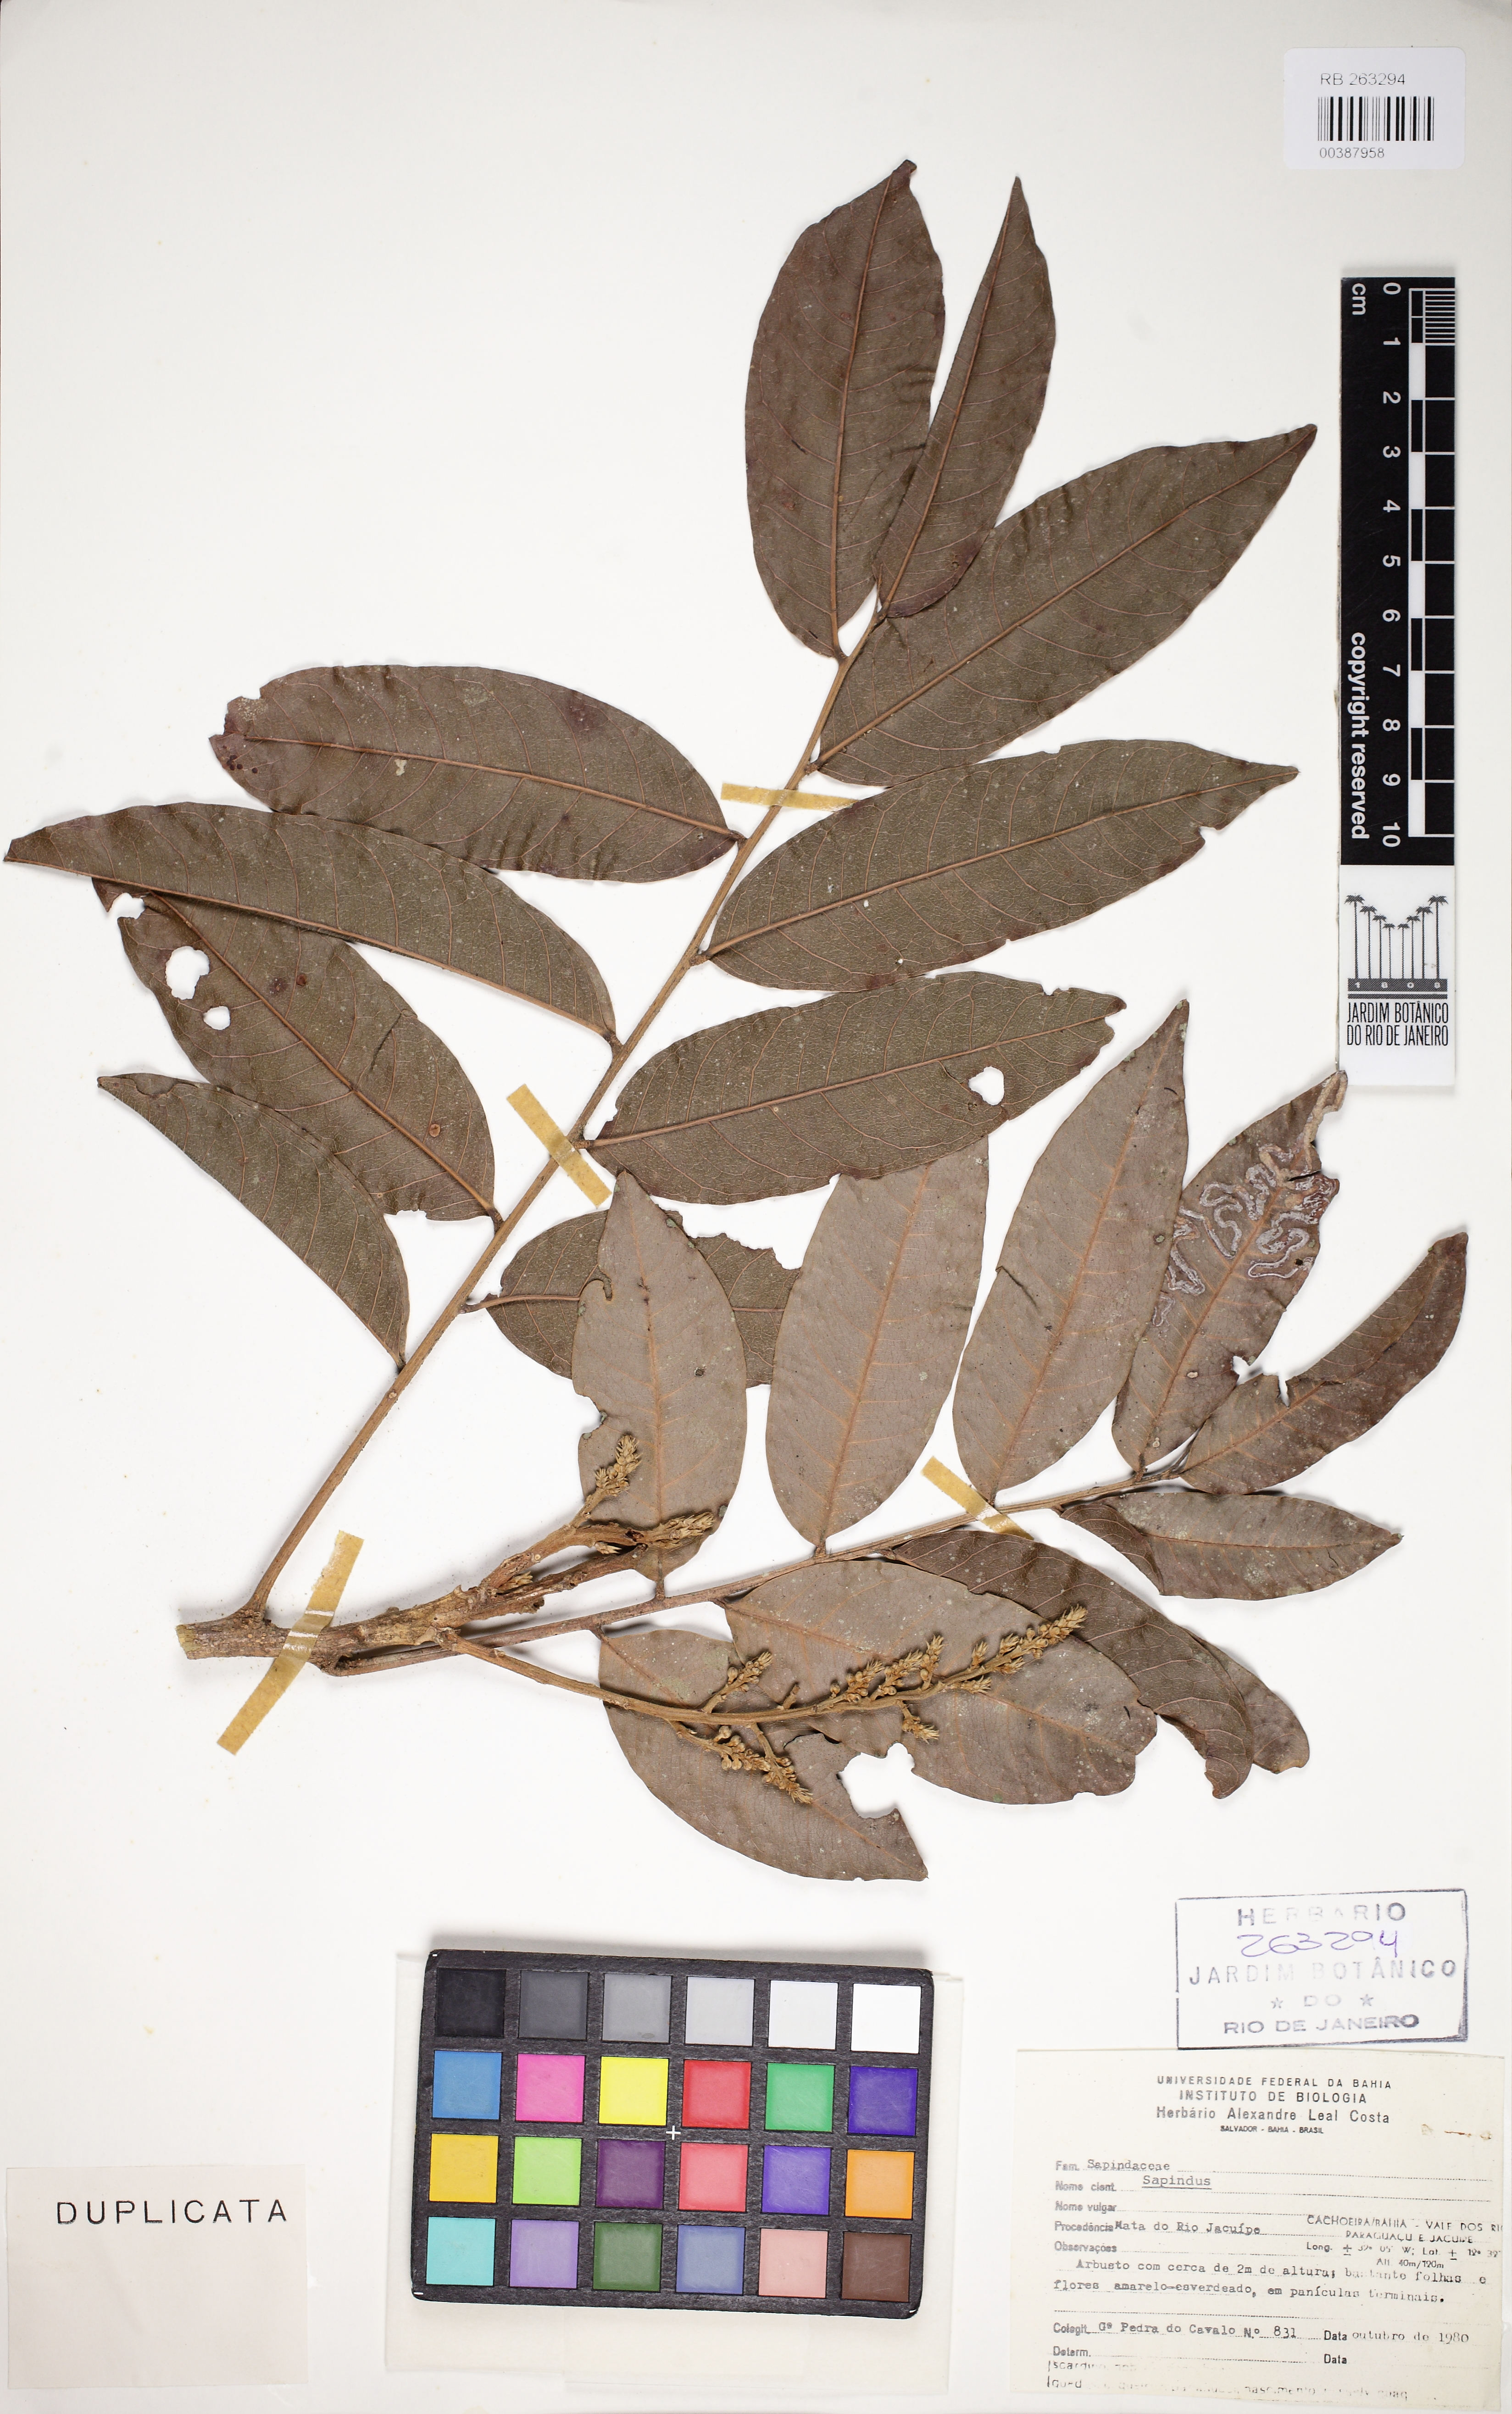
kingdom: Plantae
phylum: Tracheophyta
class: Magnoliopsida
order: Sapindales
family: Sapindaceae
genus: Sapindus
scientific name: Sapindus
